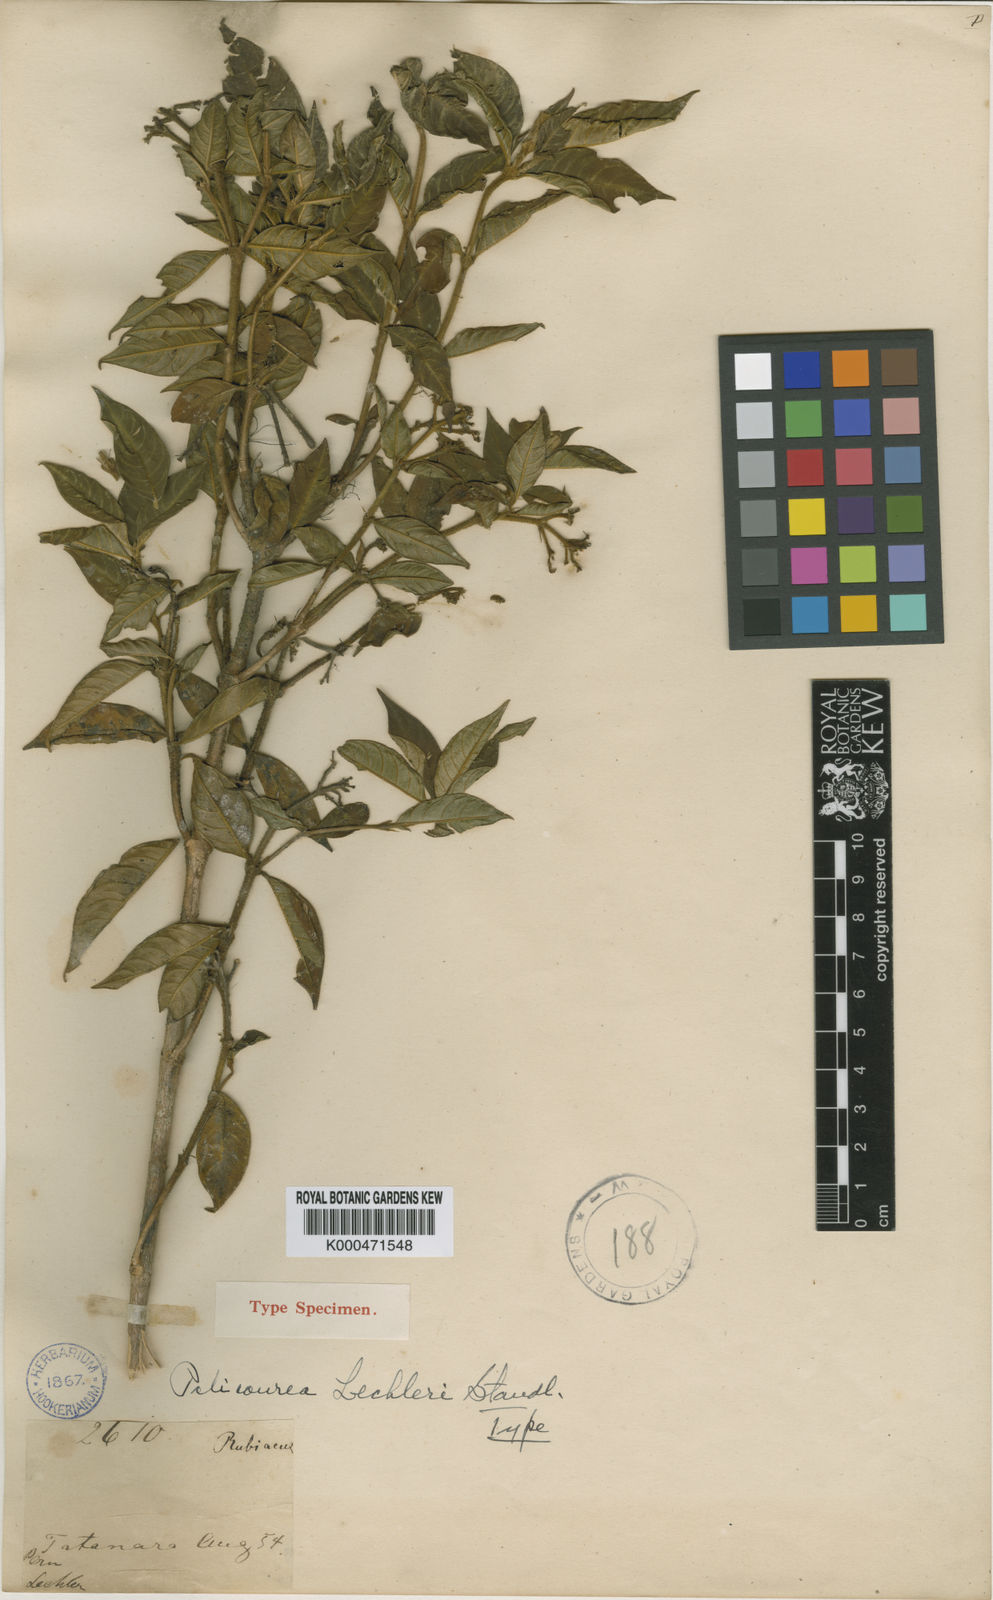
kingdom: Plantae
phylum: Tracheophyta
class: Magnoliopsida
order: Gentianales
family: Rubiaceae
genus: Palicourea
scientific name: Palicourea lechleri
